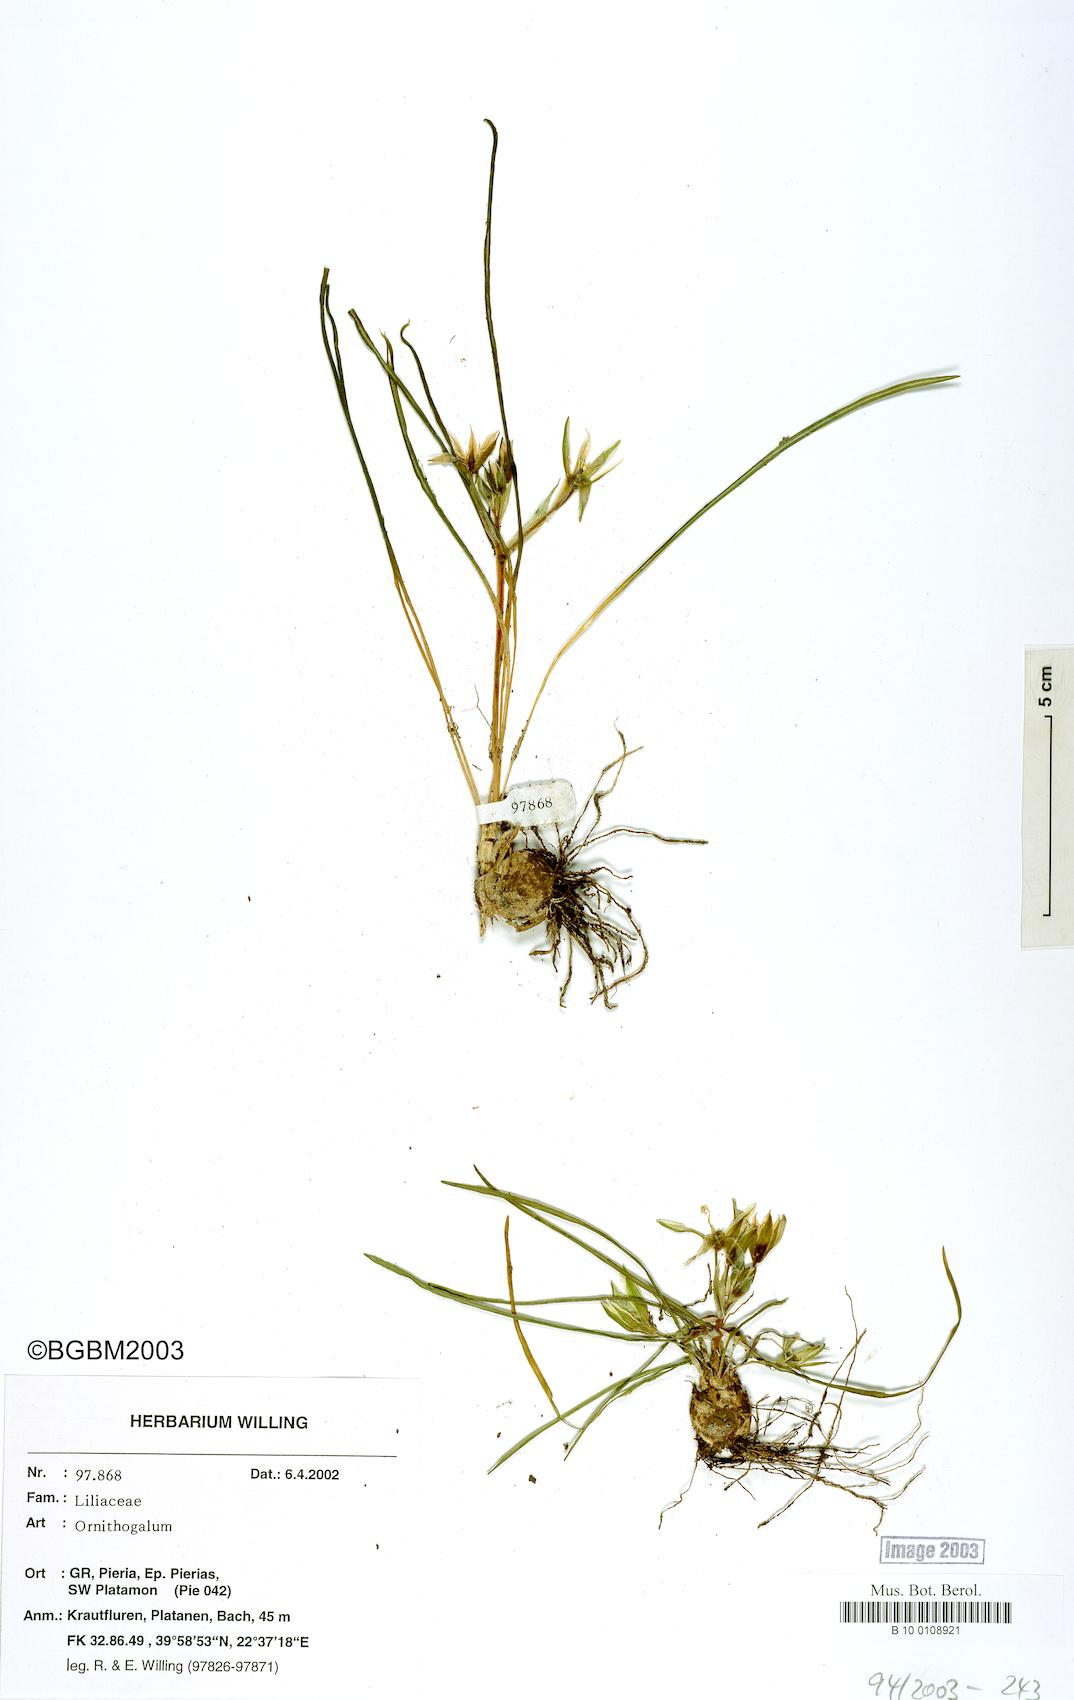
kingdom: Plantae
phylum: Tracheophyta
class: Liliopsida
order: Asparagales
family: Asparagaceae
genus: Ornithogalum
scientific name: Ornithogalum
